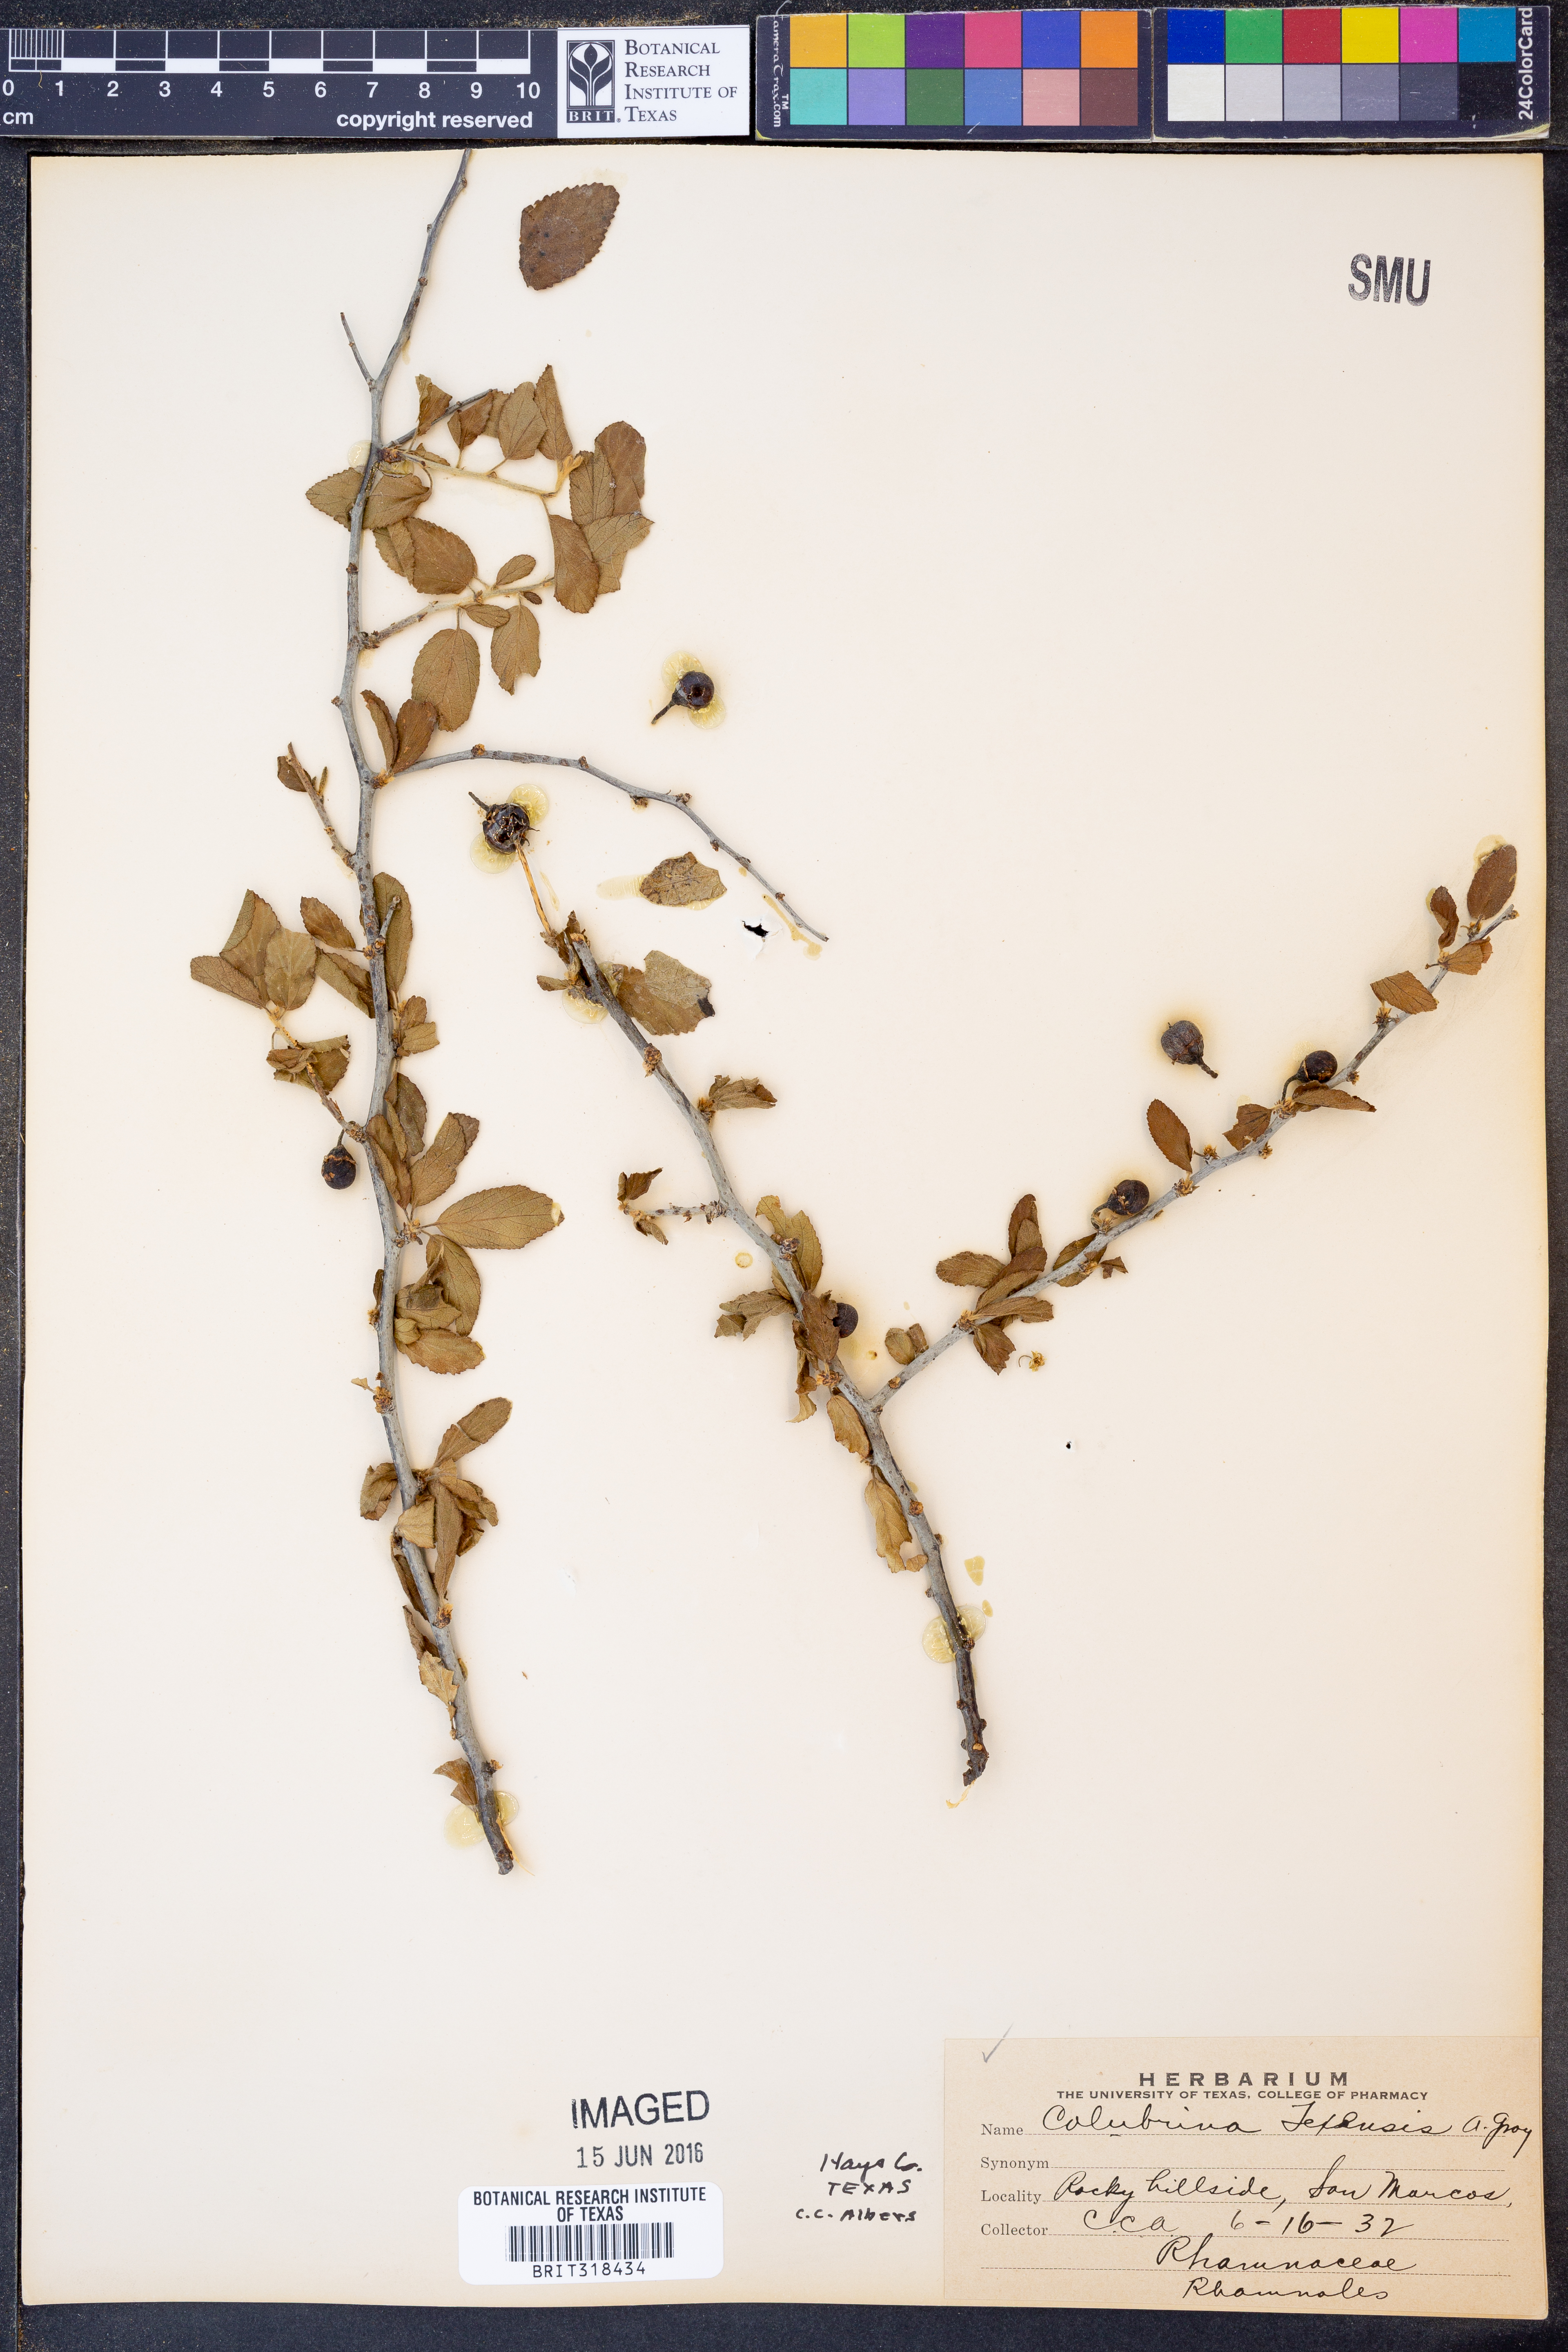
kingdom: Plantae
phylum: Tracheophyta
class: Magnoliopsida
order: Rosales
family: Rhamnaceae
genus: Colubrina
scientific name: Colubrina texensis
